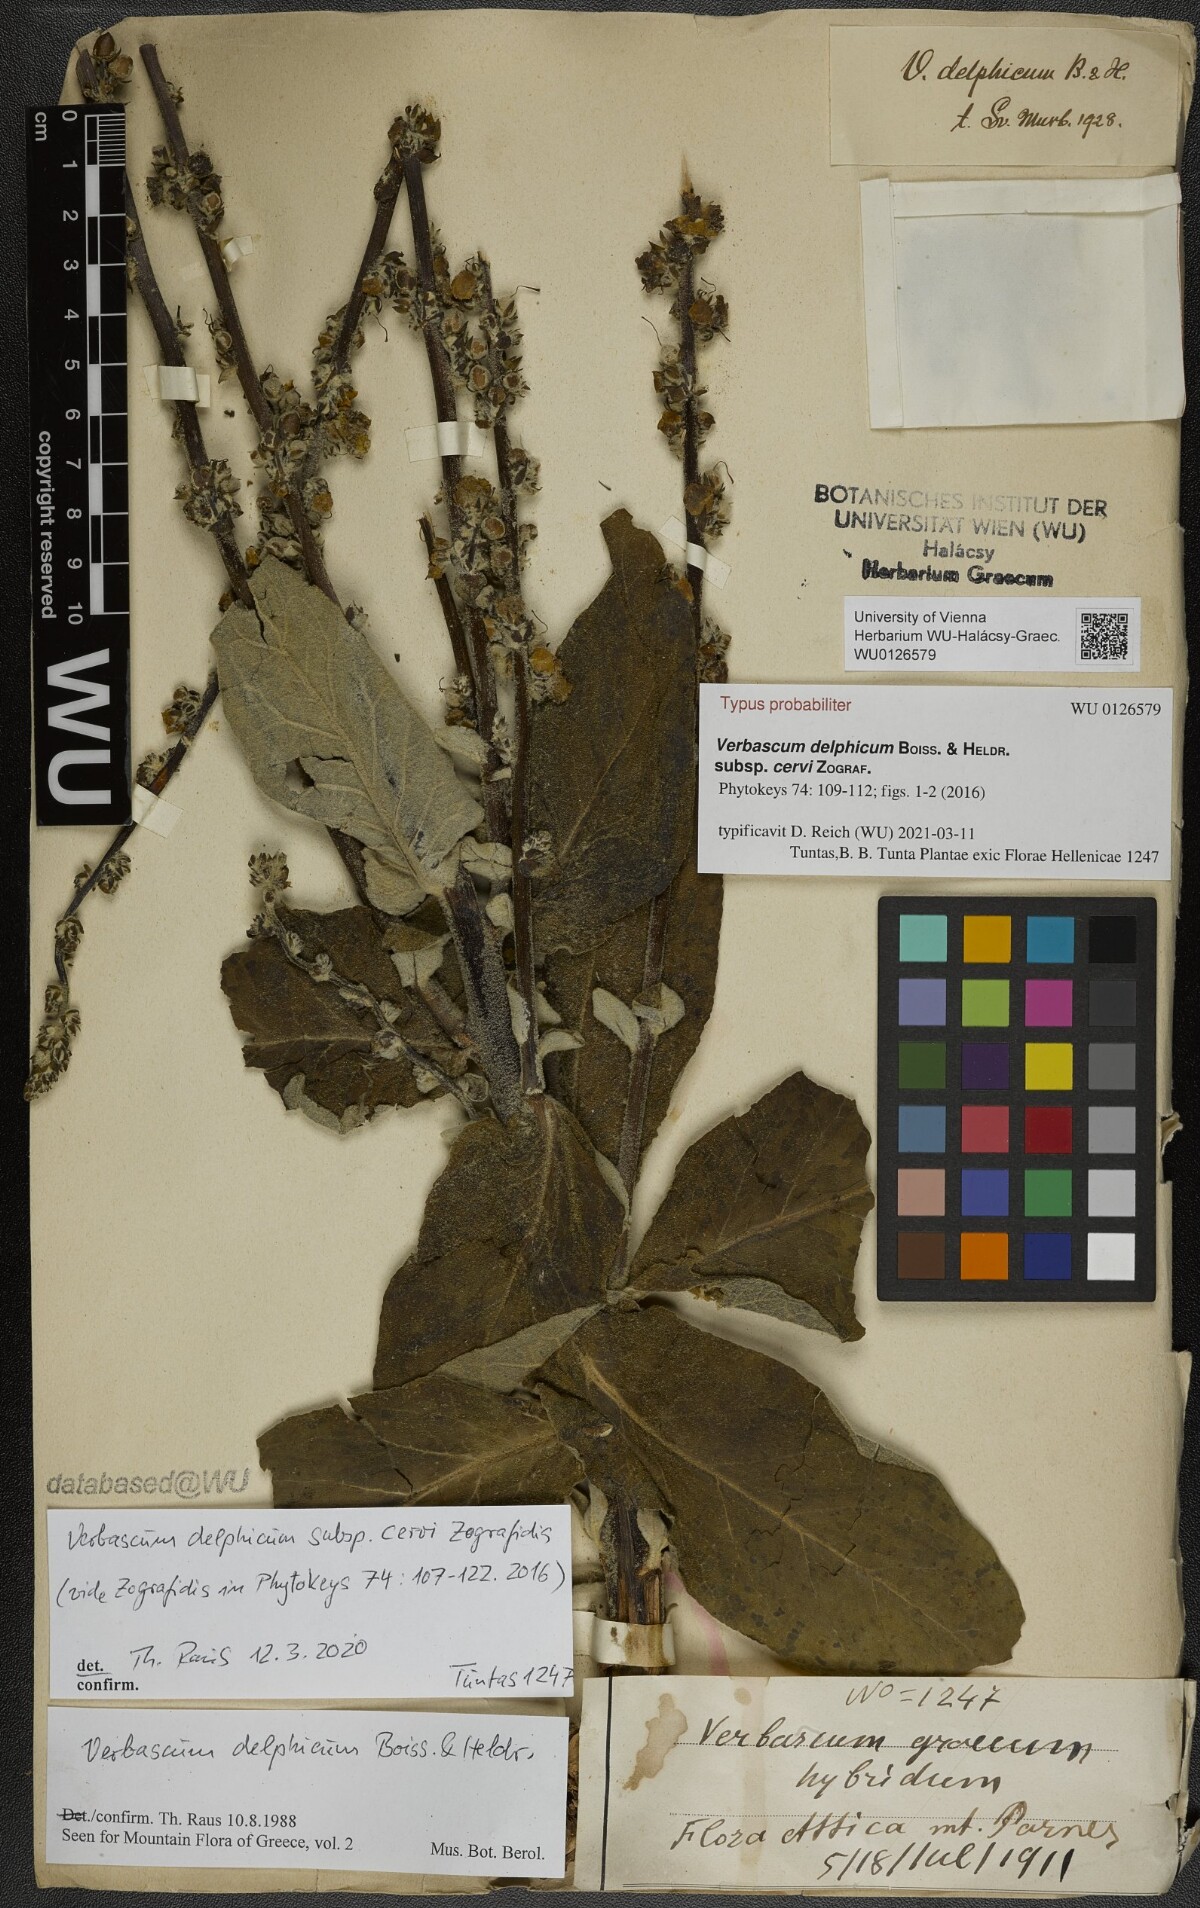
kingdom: Plantae
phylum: Tracheophyta
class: Magnoliopsida
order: Lamiales
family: Scrophulariaceae
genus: Verbascum
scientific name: Verbascum delphicum
